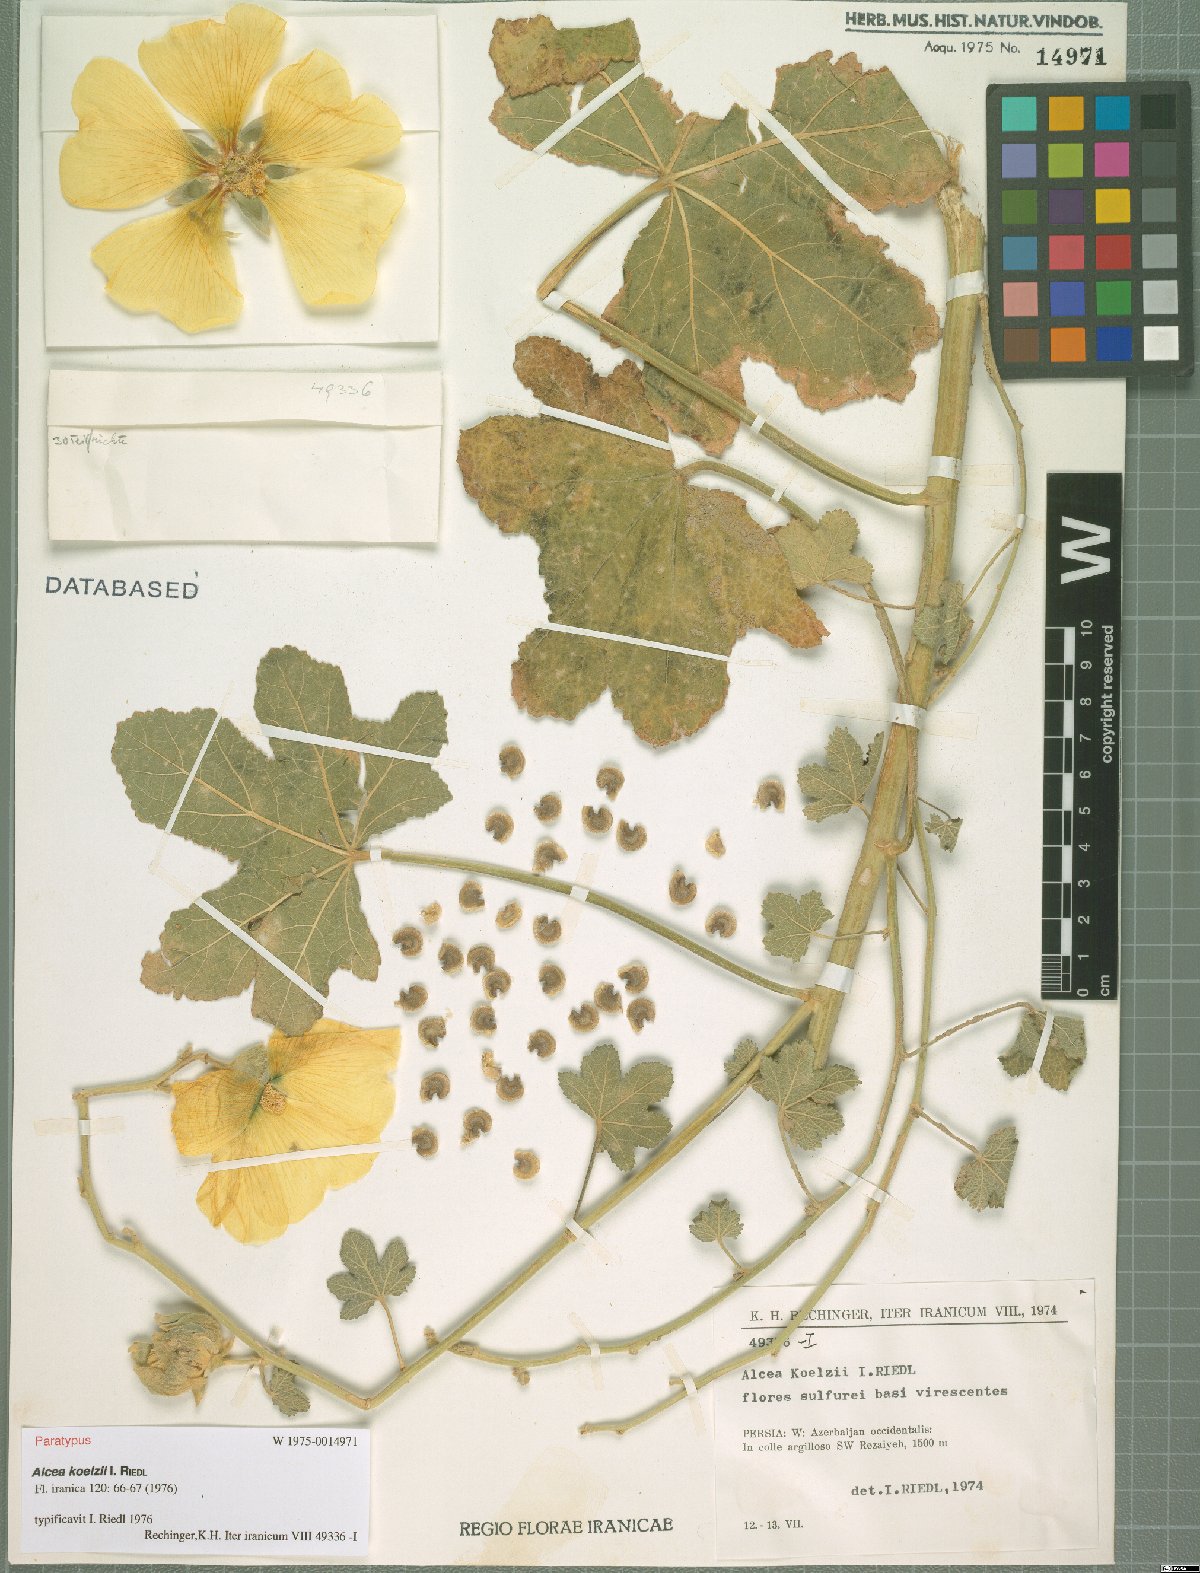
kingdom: Plantae
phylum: Tracheophyta
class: Magnoliopsida
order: Malvales
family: Malvaceae
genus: Alcea
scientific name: Alcea koelzii
